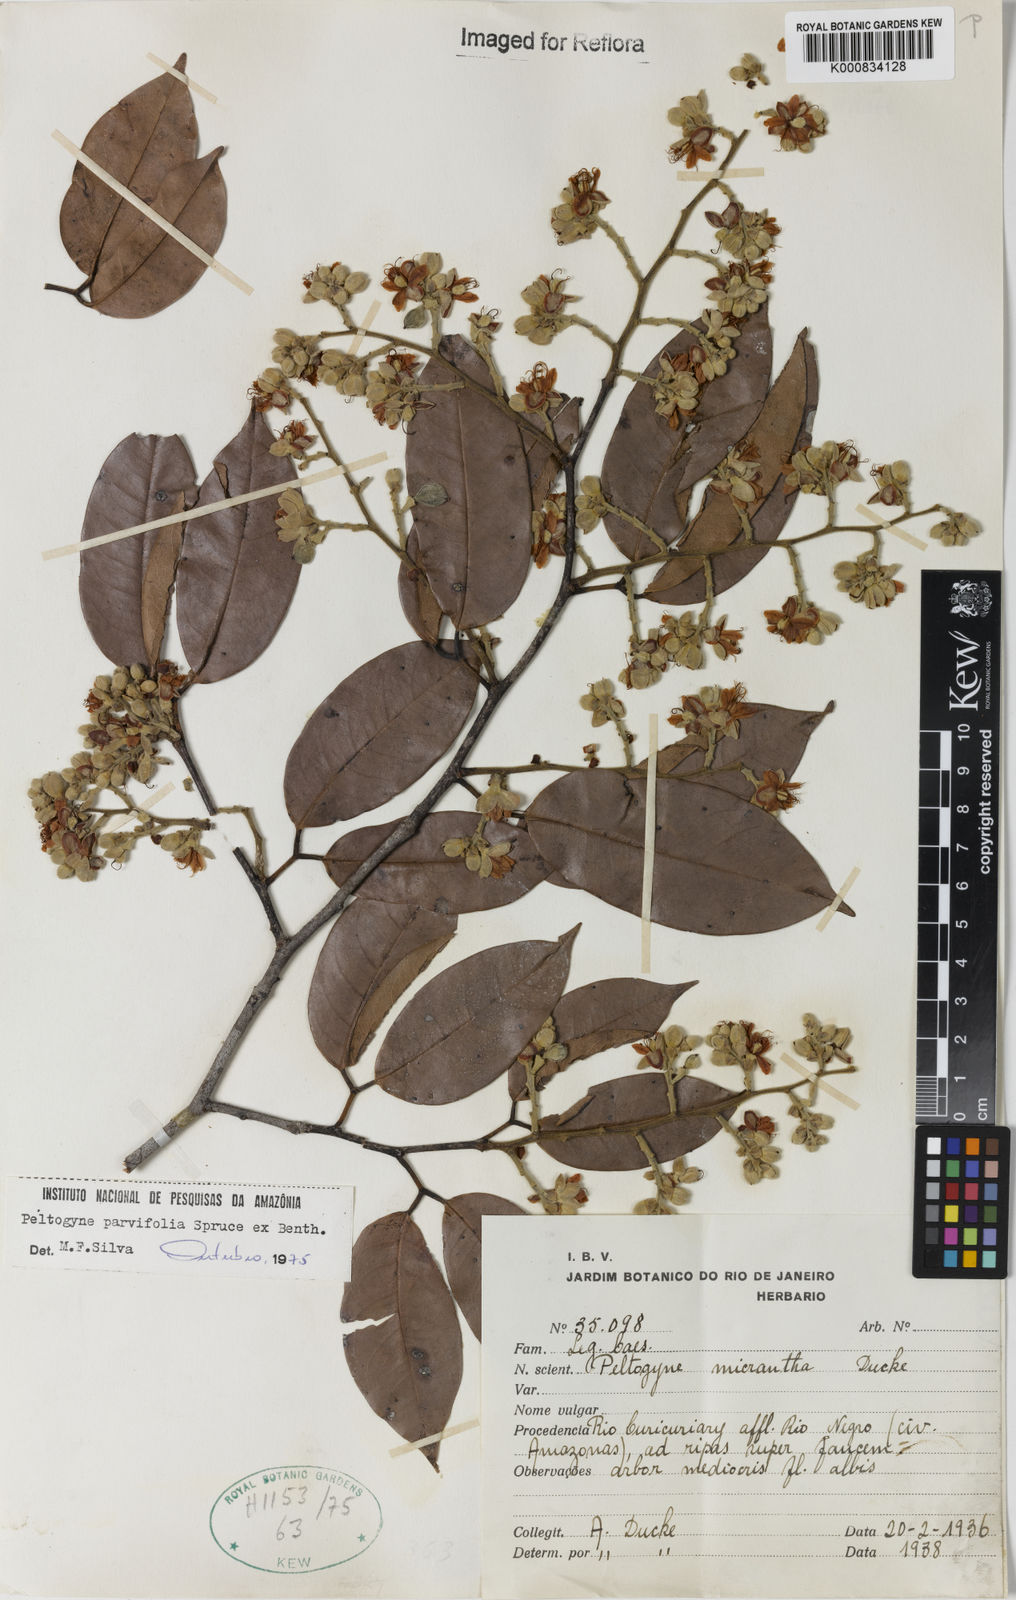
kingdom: Plantae
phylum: Tracheophyta
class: Magnoliopsida
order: Fabales
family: Fabaceae
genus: Peltogyne
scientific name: Peltogyne pauciflora
